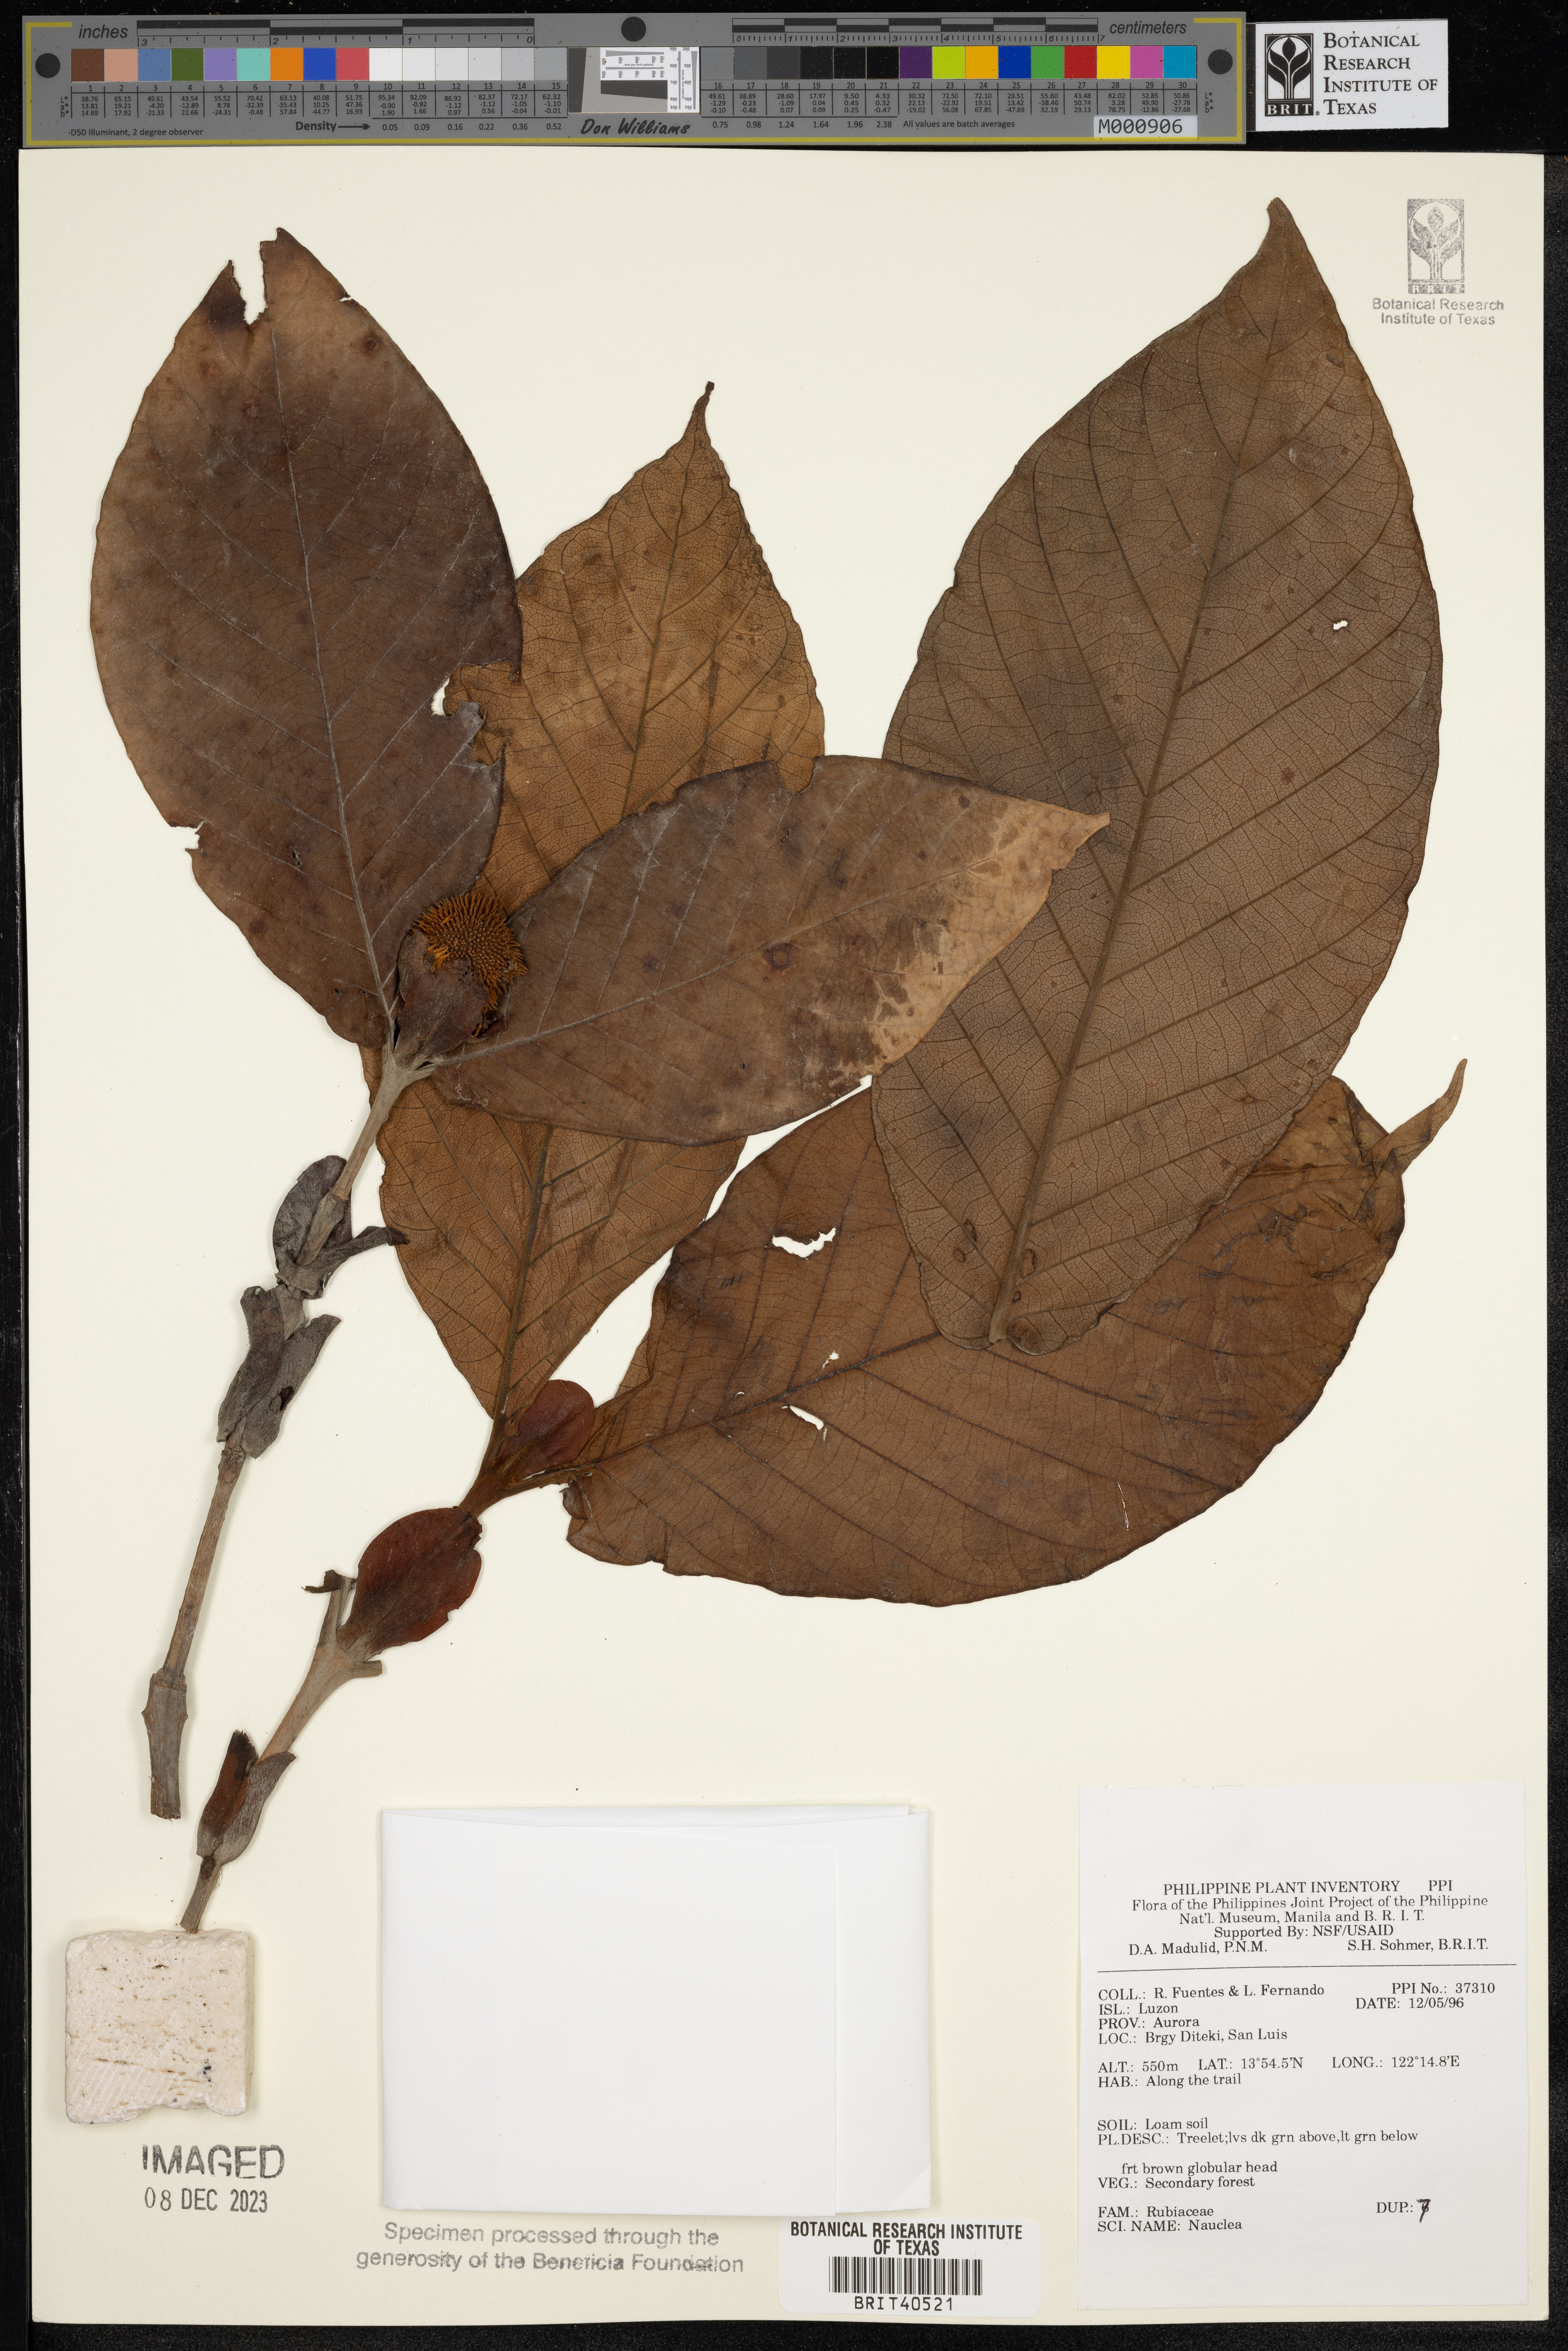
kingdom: Plantae
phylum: Tracheophyta
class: Magnoliopsida
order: Gentianales
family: Rubiaceae
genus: Nauclea
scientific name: Nauclea
